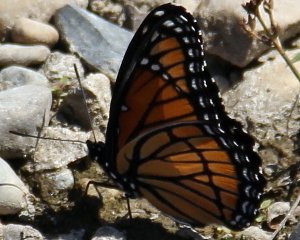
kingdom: Animalia
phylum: Arthropoda
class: Insecta
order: Lepidoptera
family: Nymphalidae
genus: Limenitis
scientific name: Limenitis archippus
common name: Viceroy
